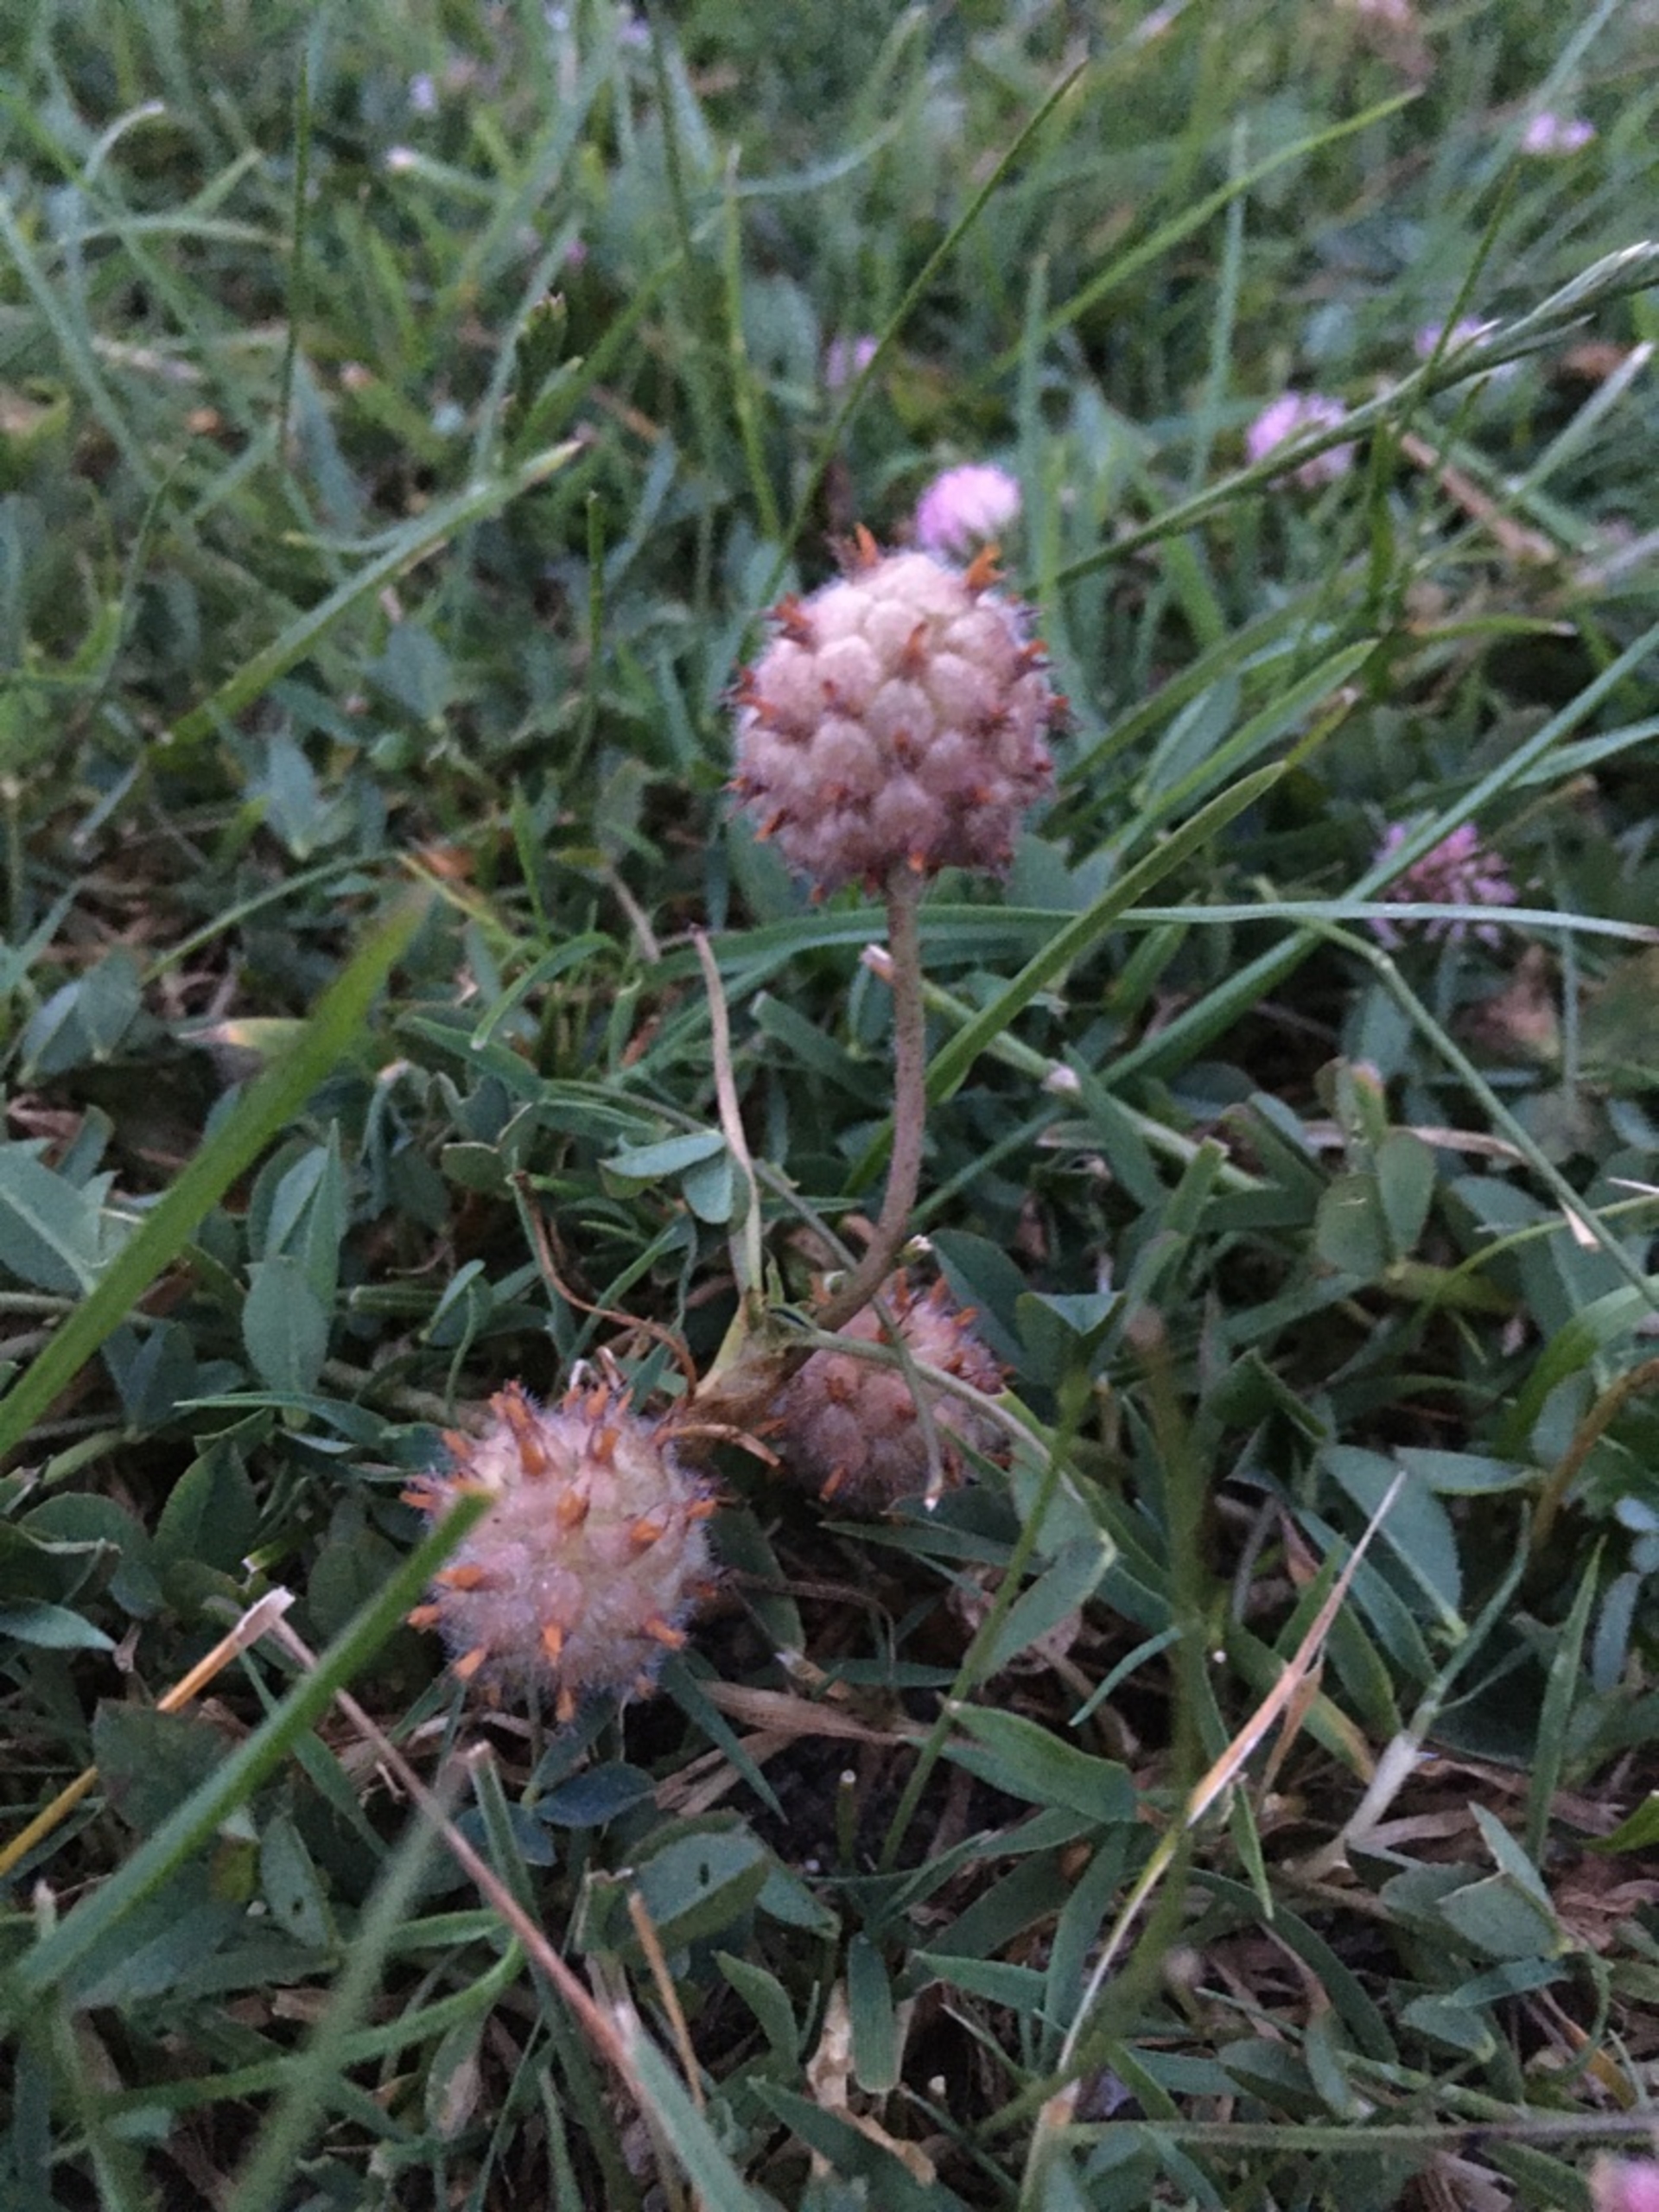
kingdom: Plantae
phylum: Tracheophyta
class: Magnoliopsida
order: Fabales
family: Fabaceae
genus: Trifolium
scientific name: Trifolium fragiferum
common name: Jordbær-kløver
